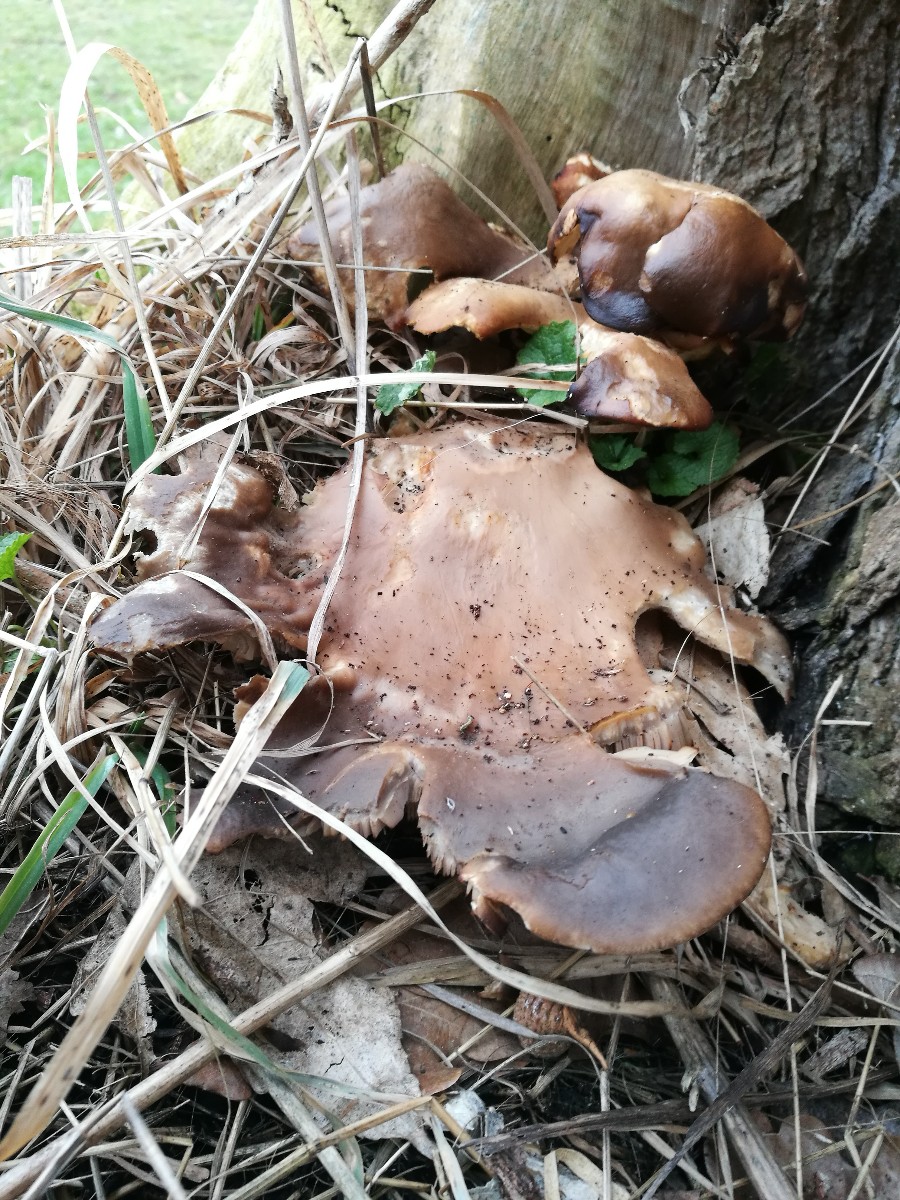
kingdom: Fungi
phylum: Basidiomycota
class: Agaricomycetes
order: Agaricales
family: Pleurotaceae
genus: Pleurotus
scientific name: Pleurotus ostreatus
